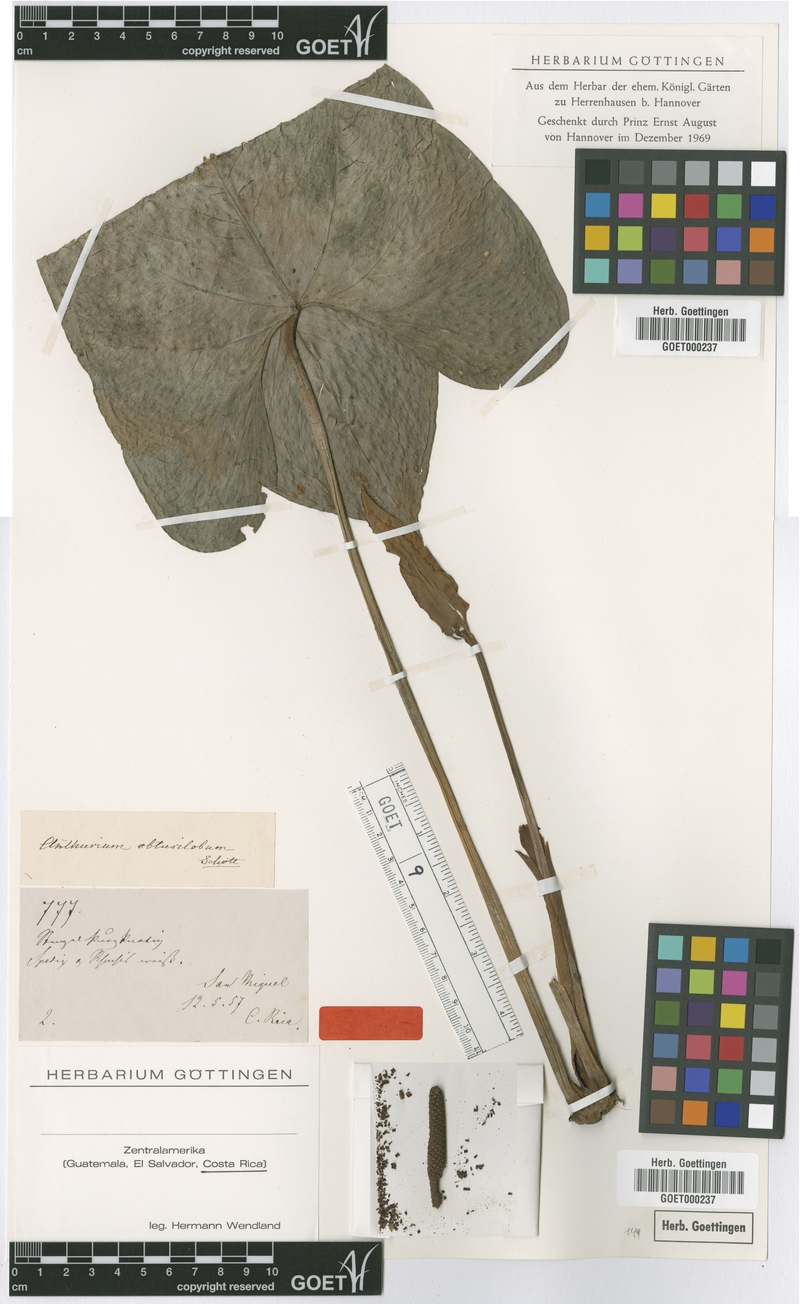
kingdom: Plantae
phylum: Tracheophyta
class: Liliopsida
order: Alismatales
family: Araceae
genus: Anthurium
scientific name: Anthurium obtusilobum
